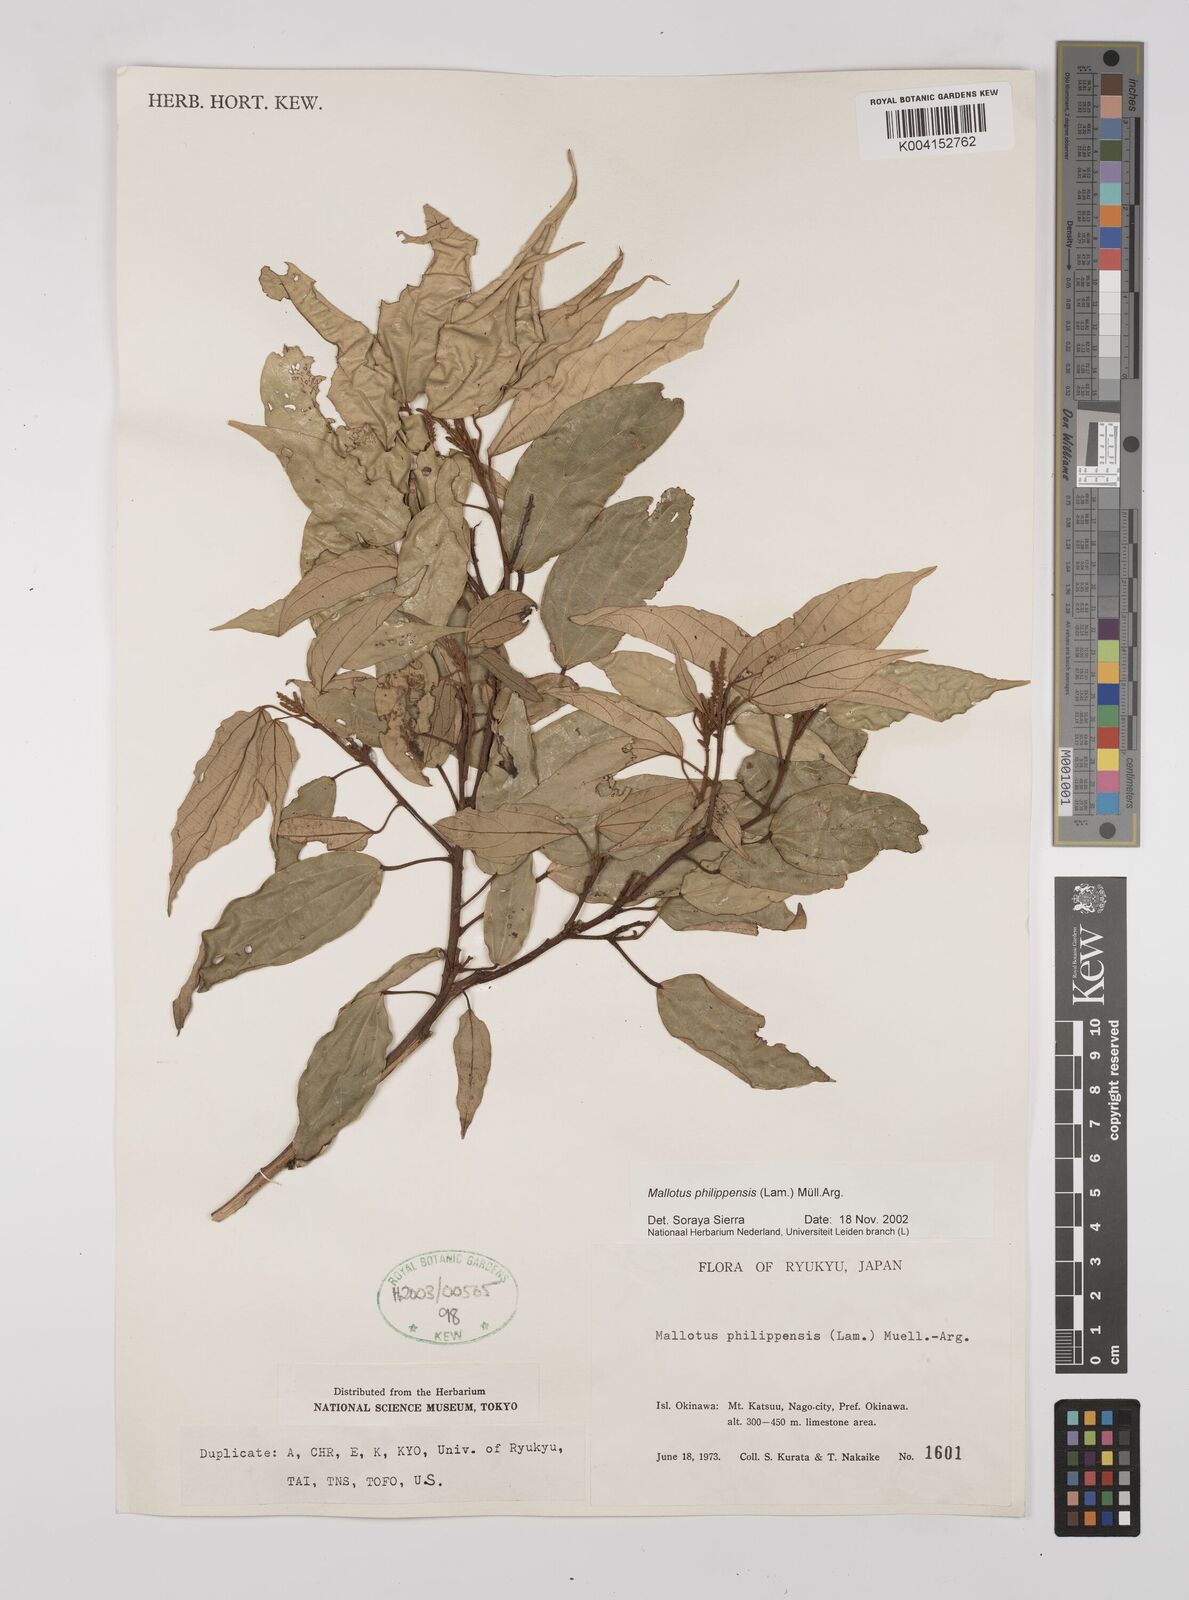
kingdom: Plantae
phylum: Tracheophyta
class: Magnoliopsida
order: Malpighiales
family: Euphorbiaceae
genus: Mallotus
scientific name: Mallotus philippensis
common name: Kamala tree
